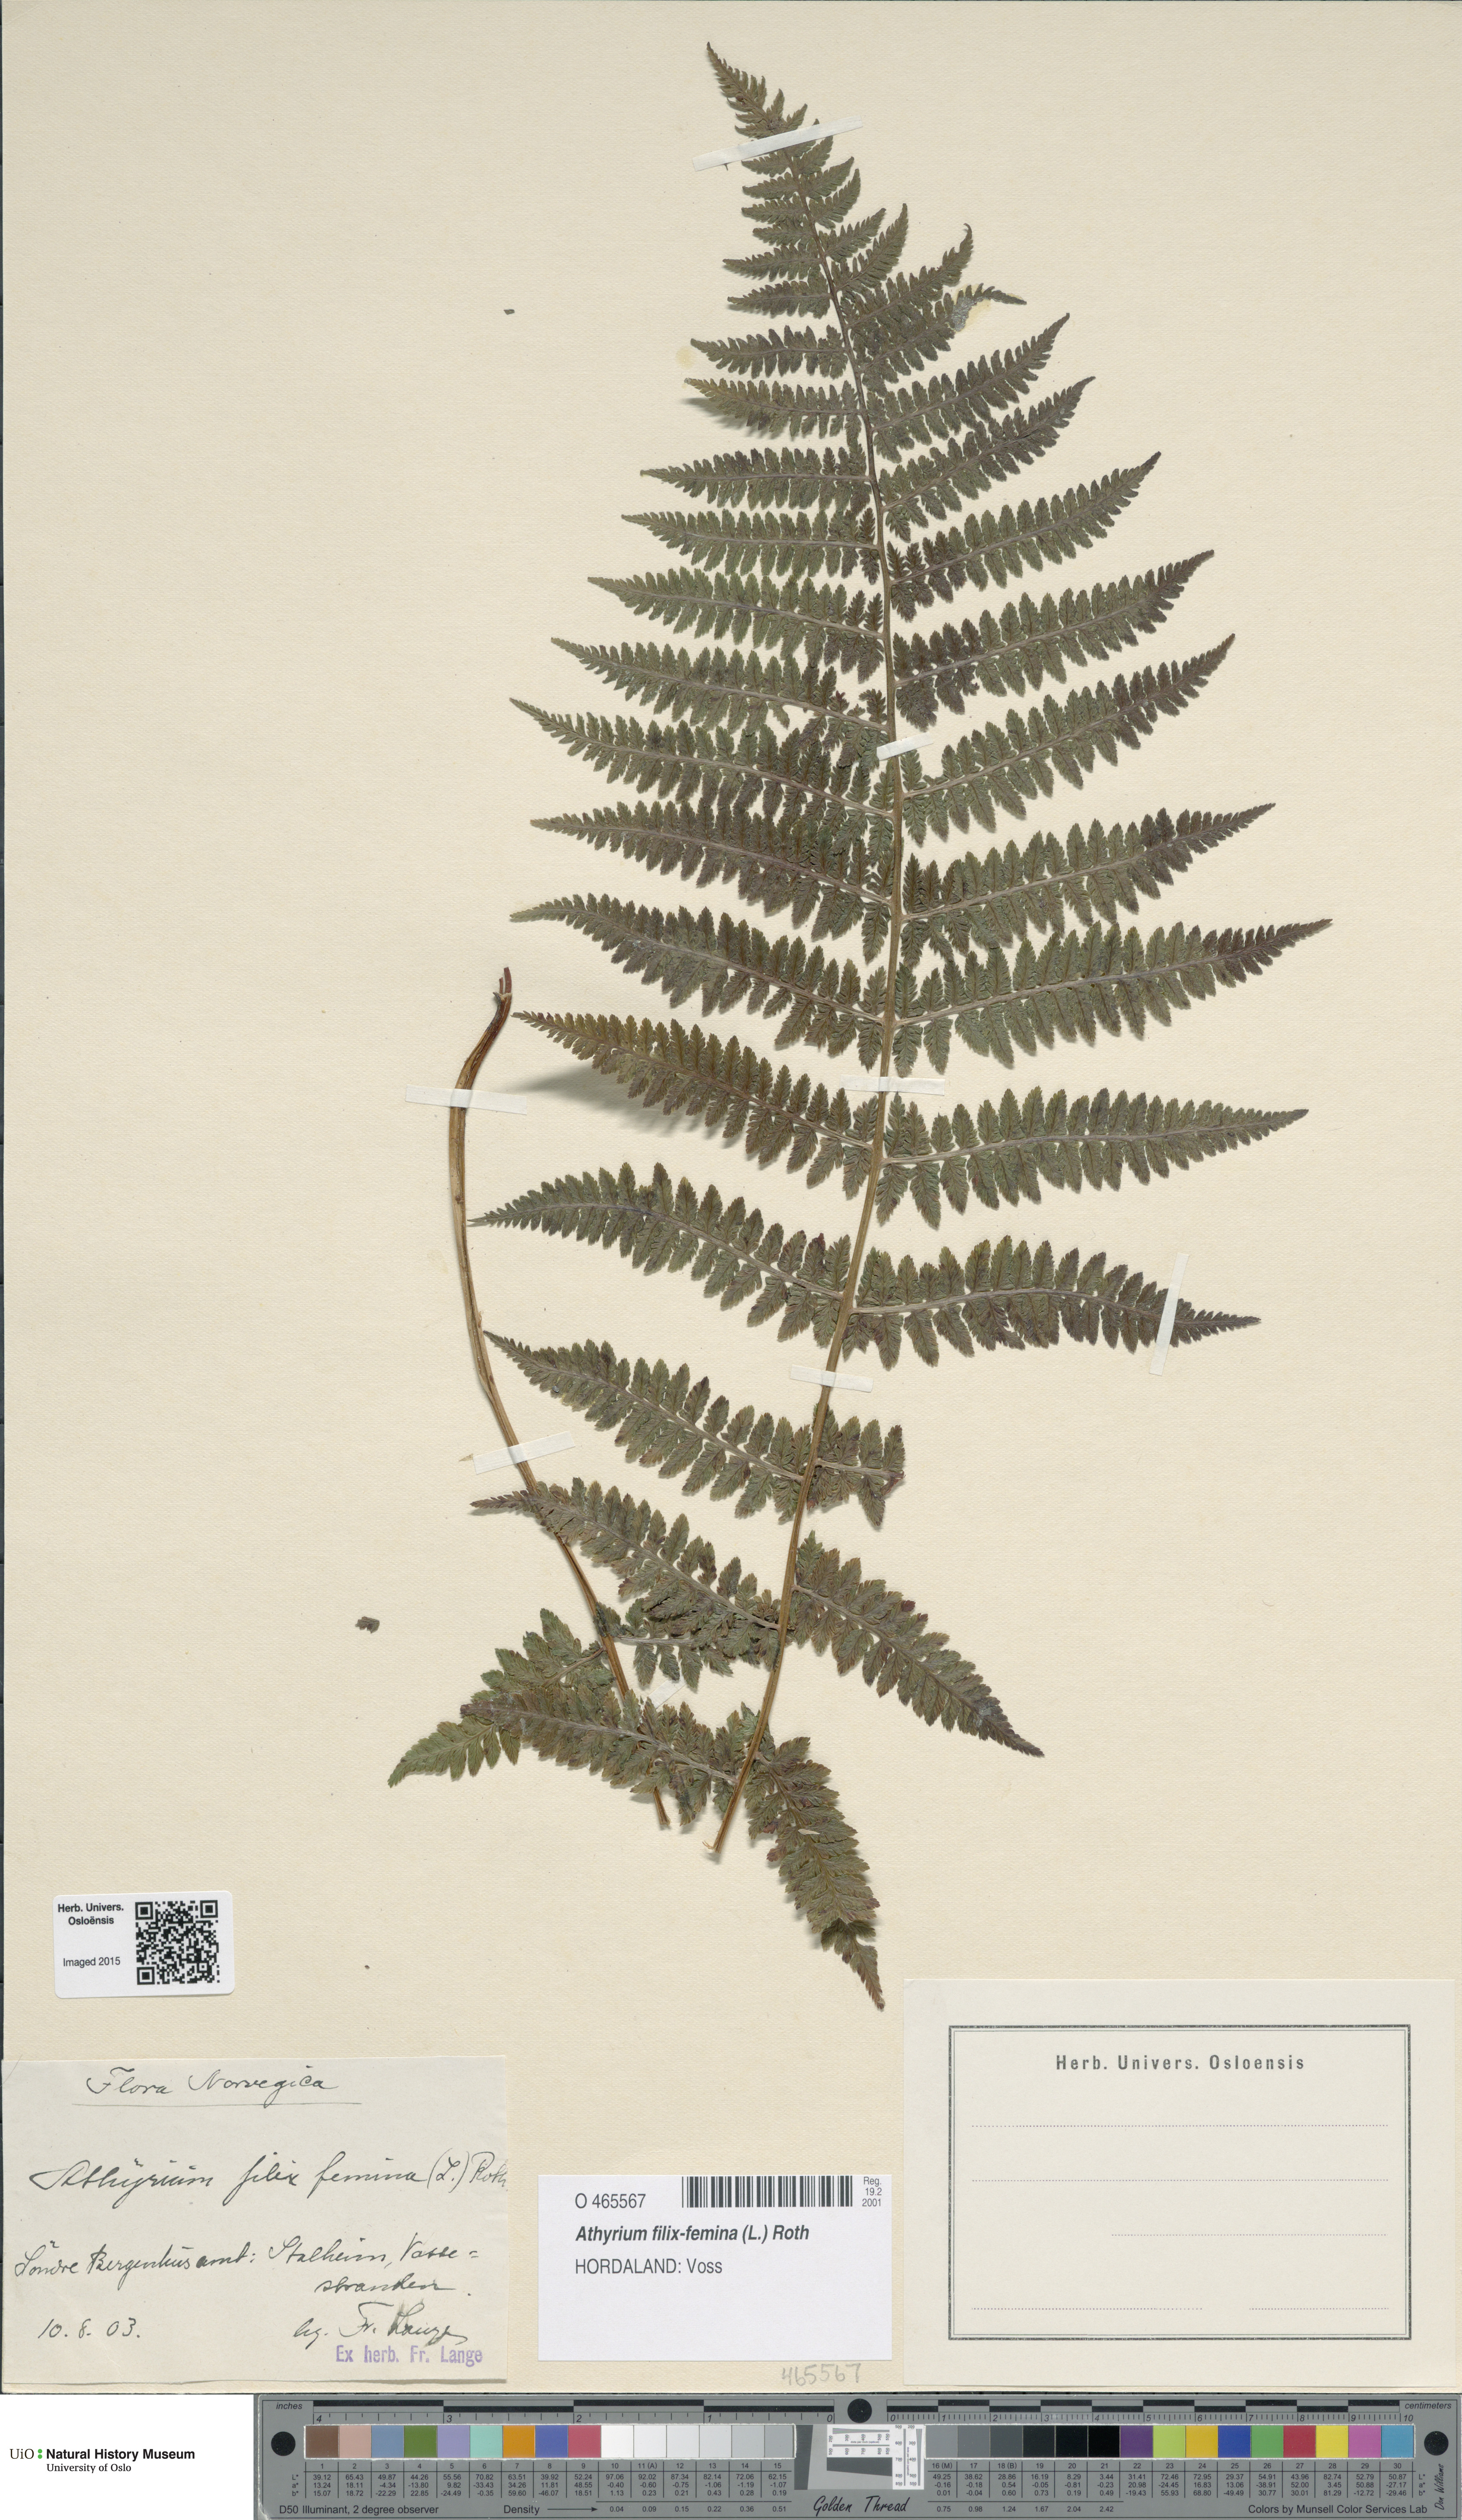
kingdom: Plantae
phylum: Tracheophyta
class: Polypodiopsida
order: Polypodiales
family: Athyriaceae
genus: Athyrium
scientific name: Athyrium filix-femina
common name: Lady fern
